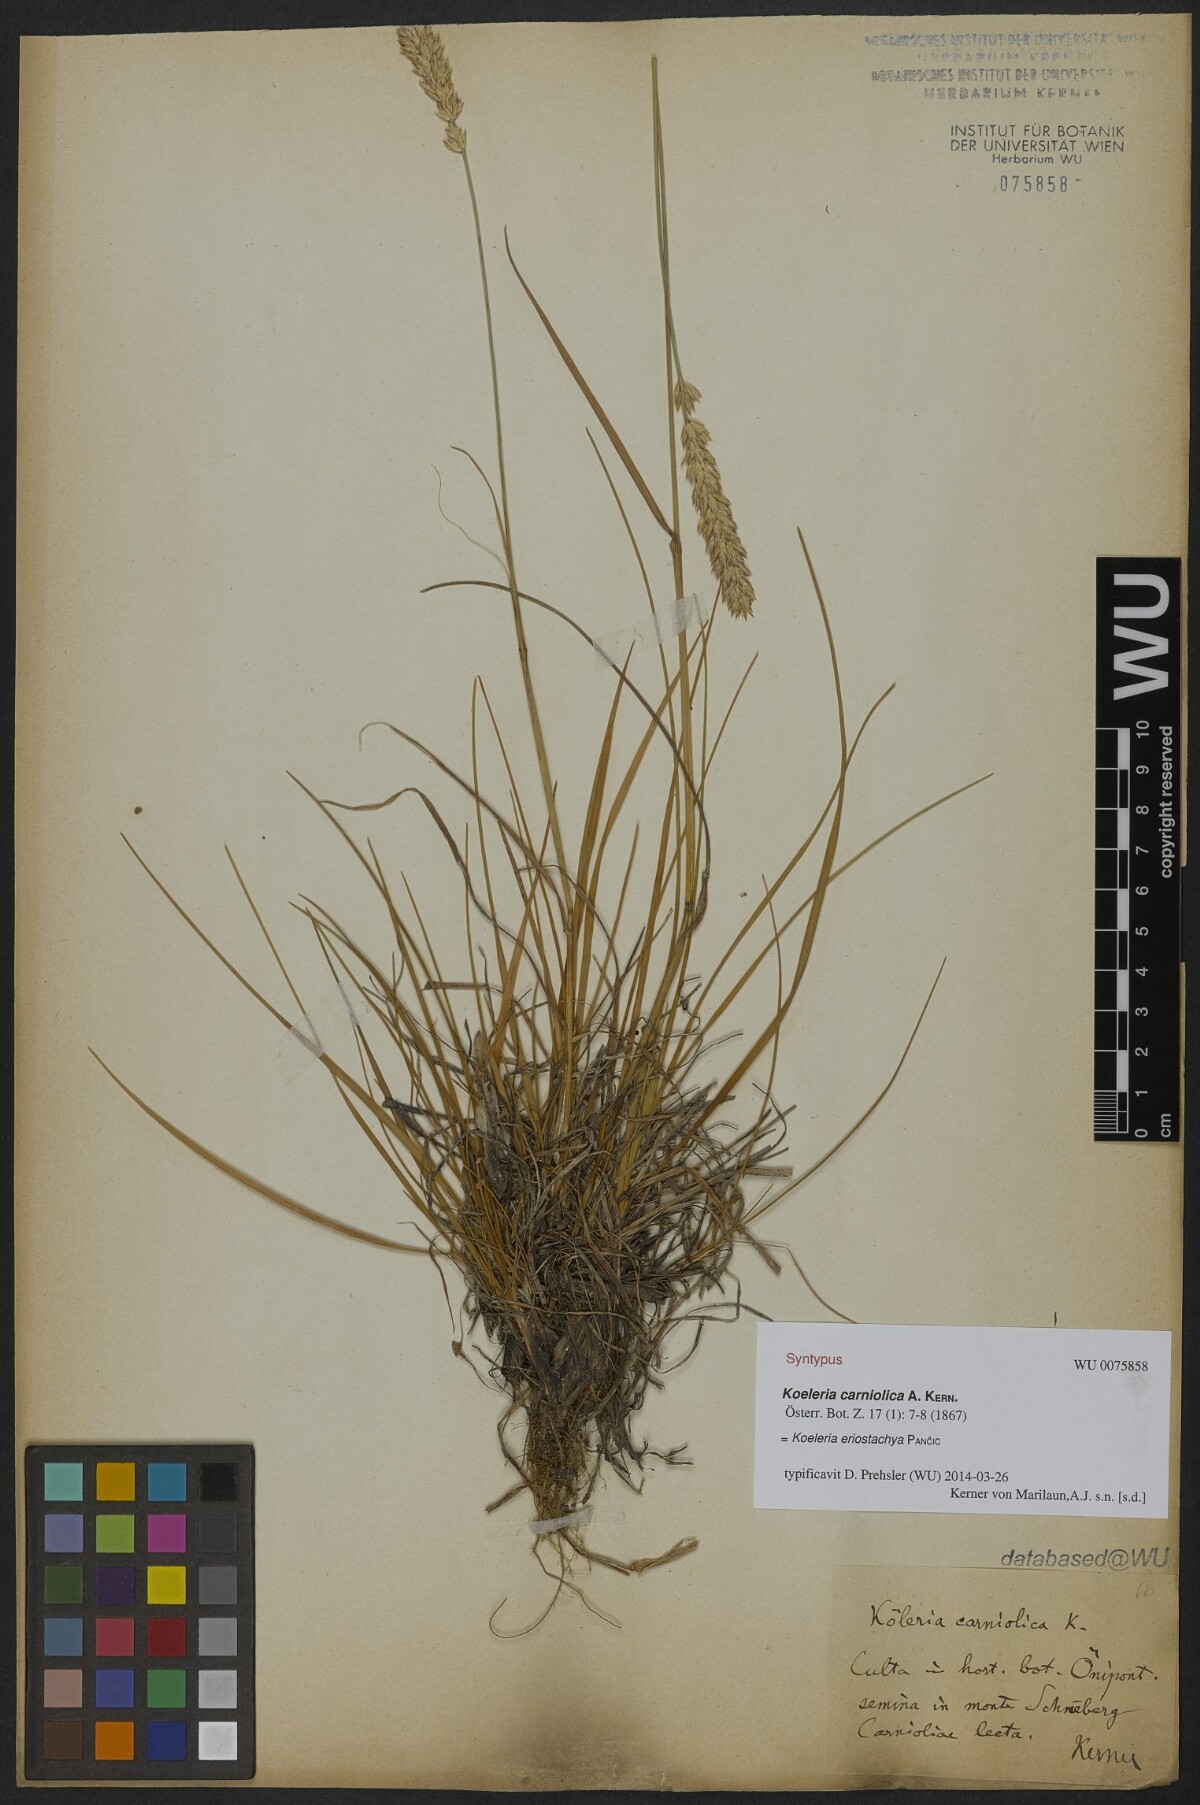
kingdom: Plantae
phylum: Tracheophyta
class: Liliopsida
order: Poales
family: Poaceae
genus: Koeleria
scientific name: Koeleria eriostachya
